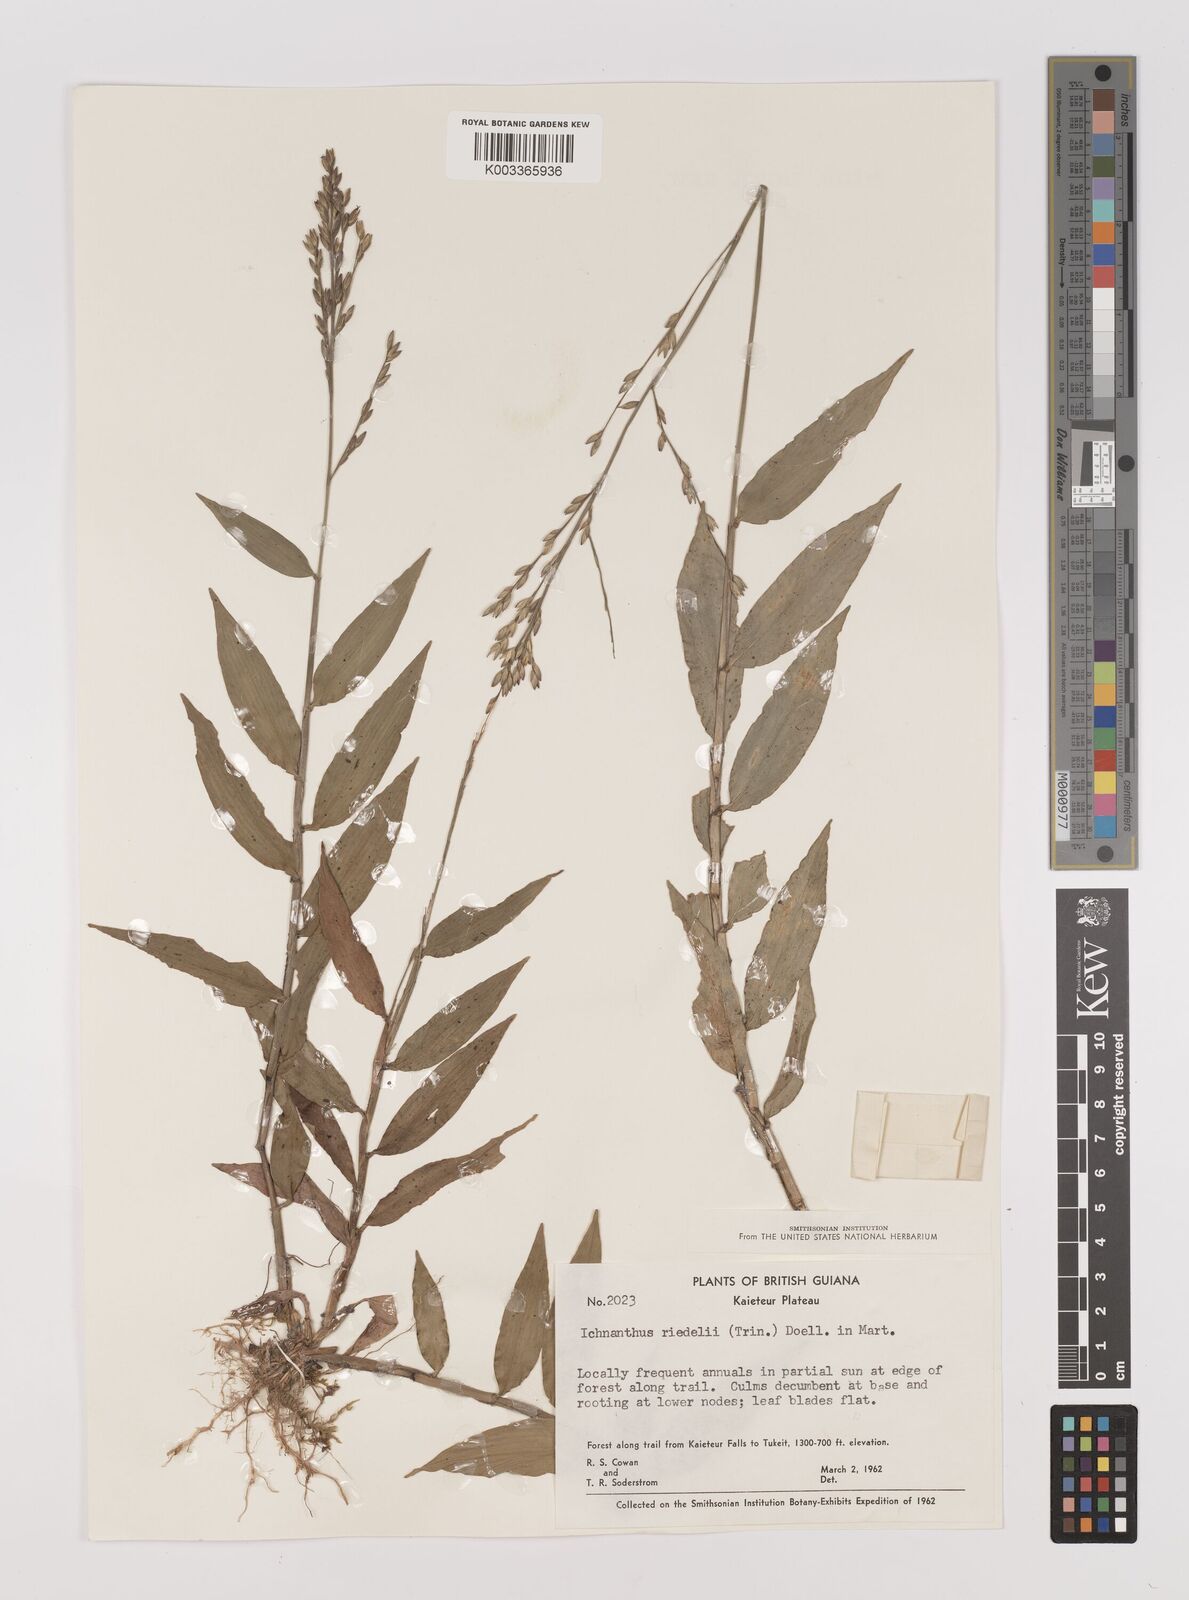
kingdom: Plantae
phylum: Tracheophyta
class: Liliopsida
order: Poales
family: Poaceae
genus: Ichnanthus
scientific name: Ichnanthus nemoralis
